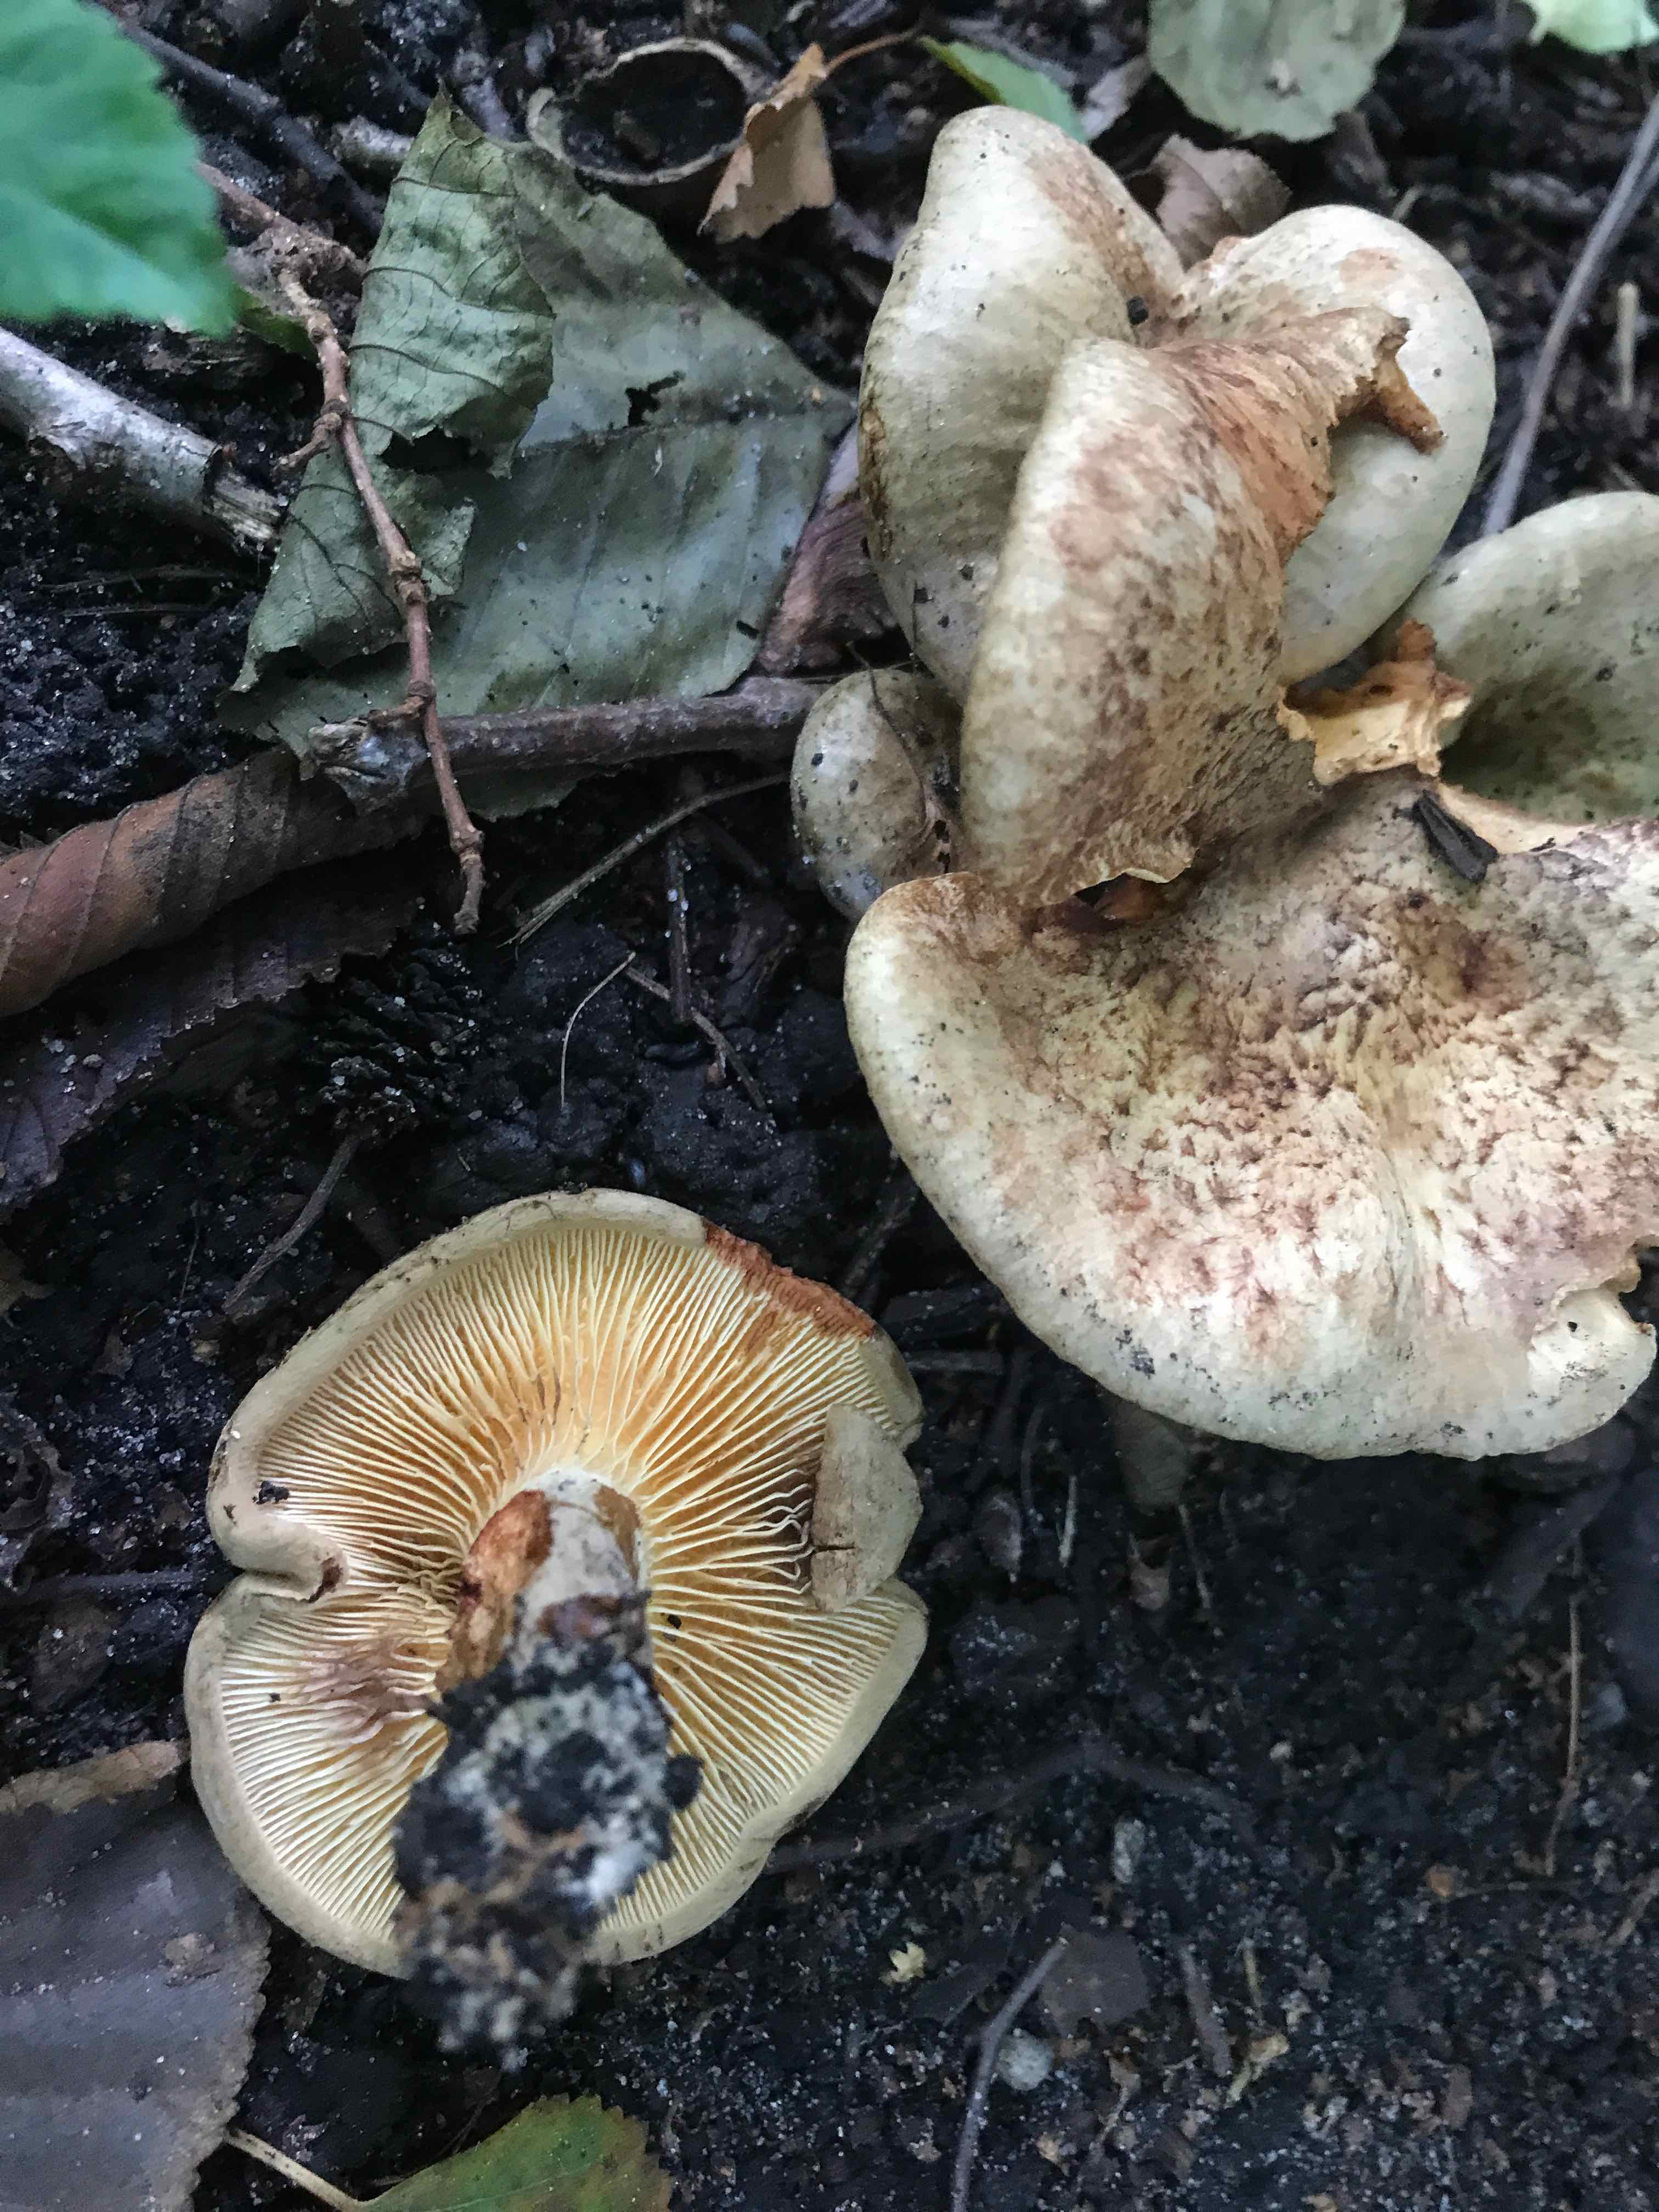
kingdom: Fungi
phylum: Basidiomycota
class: Agaricomycetes
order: Boletales
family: Paxillaceae
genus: Paxillus
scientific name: Paxillus rubicundulus
